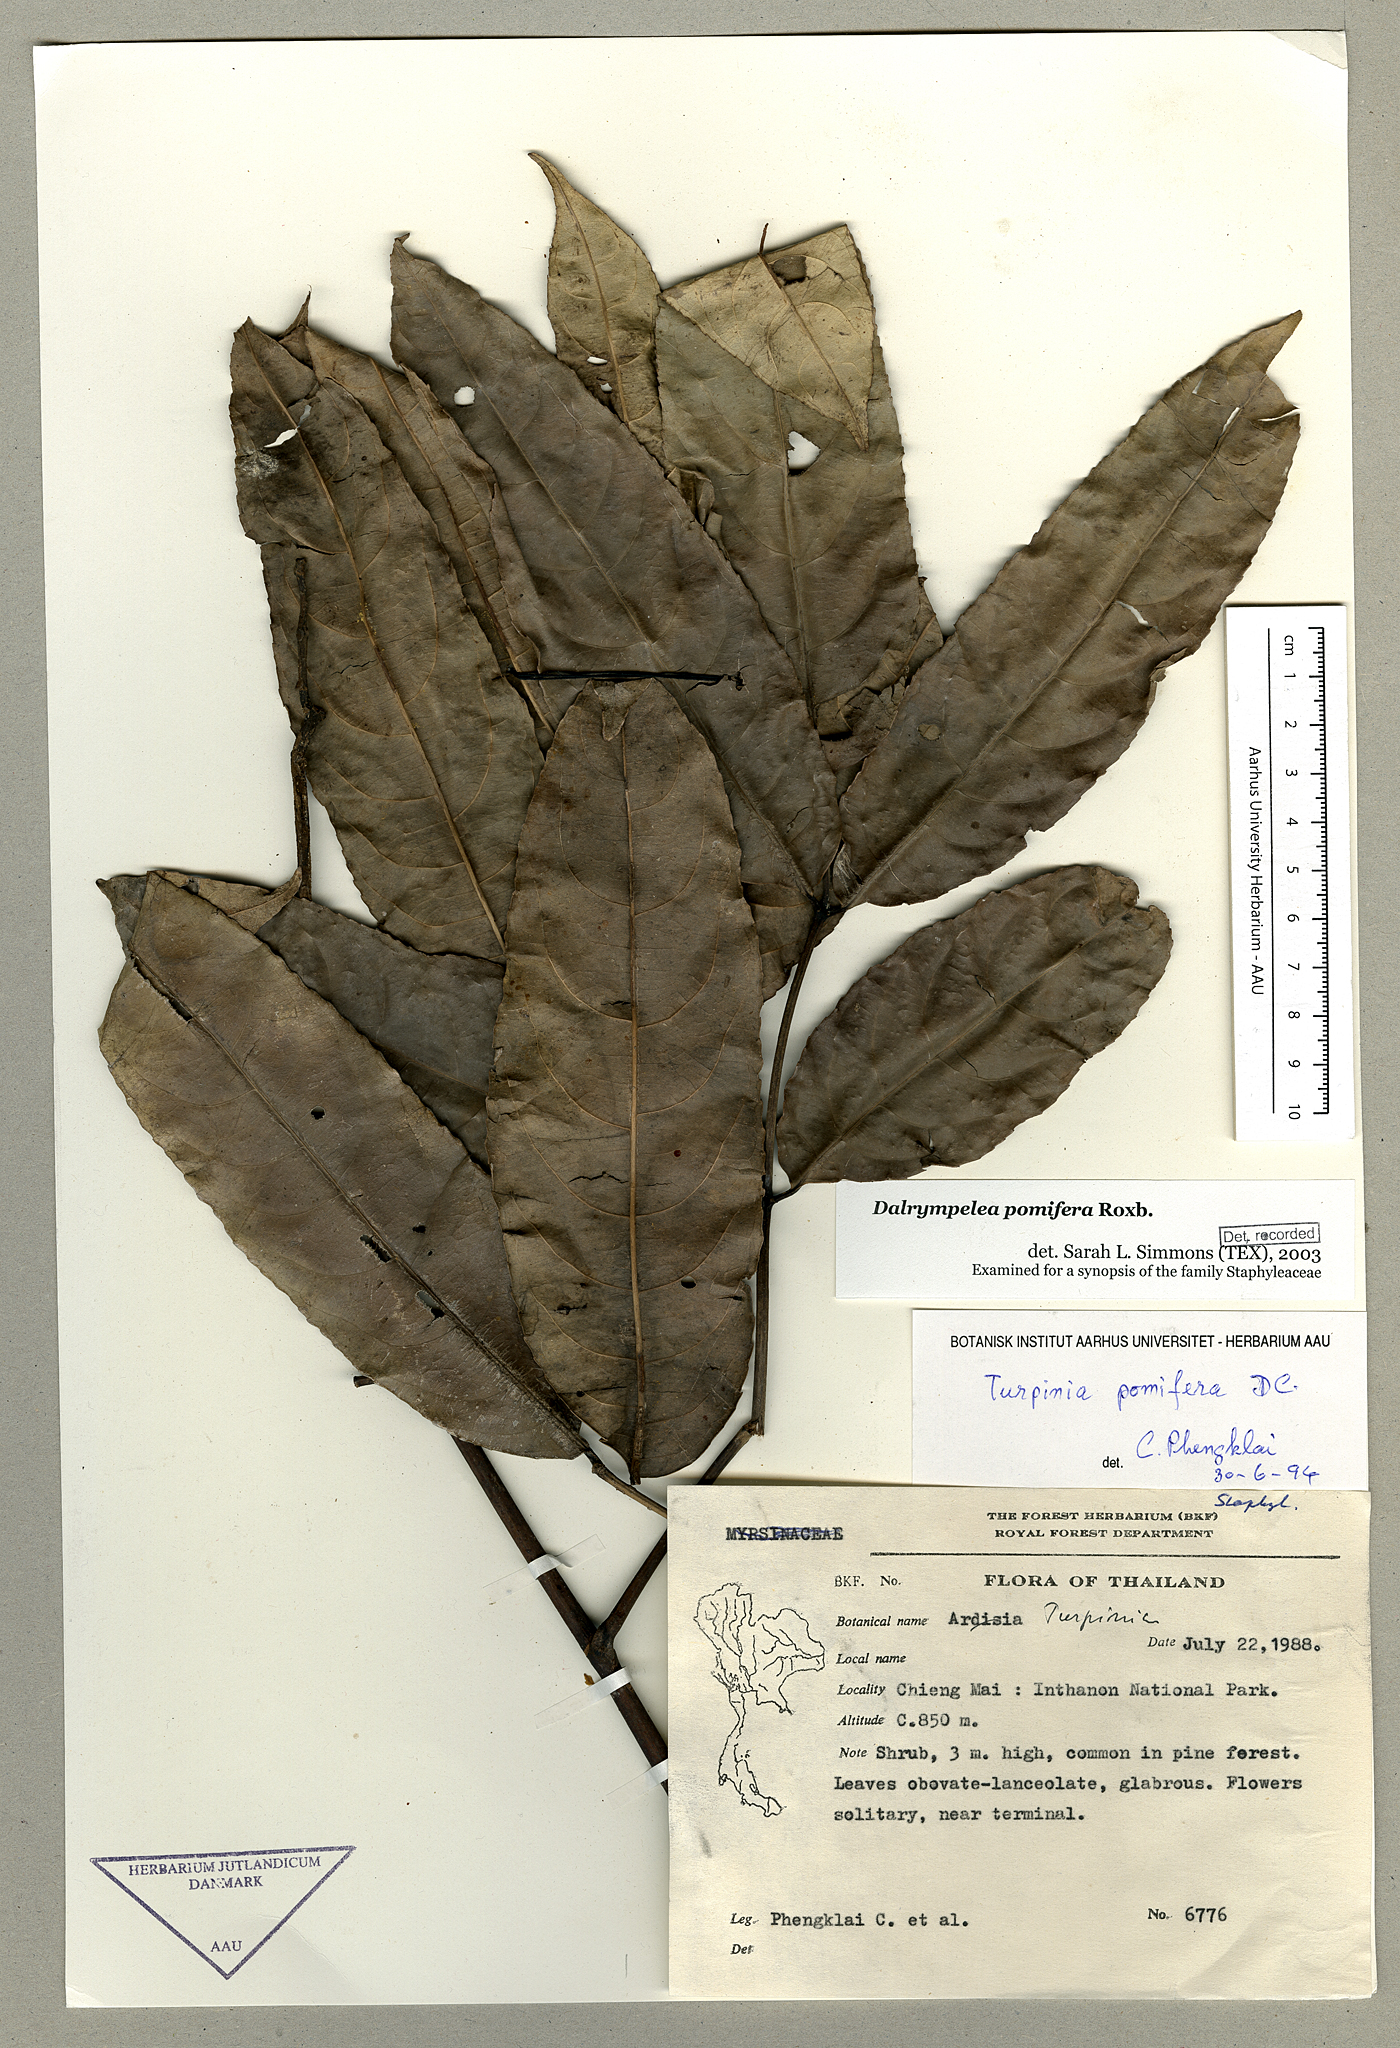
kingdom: Plantae
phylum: Tracheophyta
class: Magnoliopsida
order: Crossosomatales
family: Staphyleaceae
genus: Dalrympelea
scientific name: Dalrympelea pomifera
